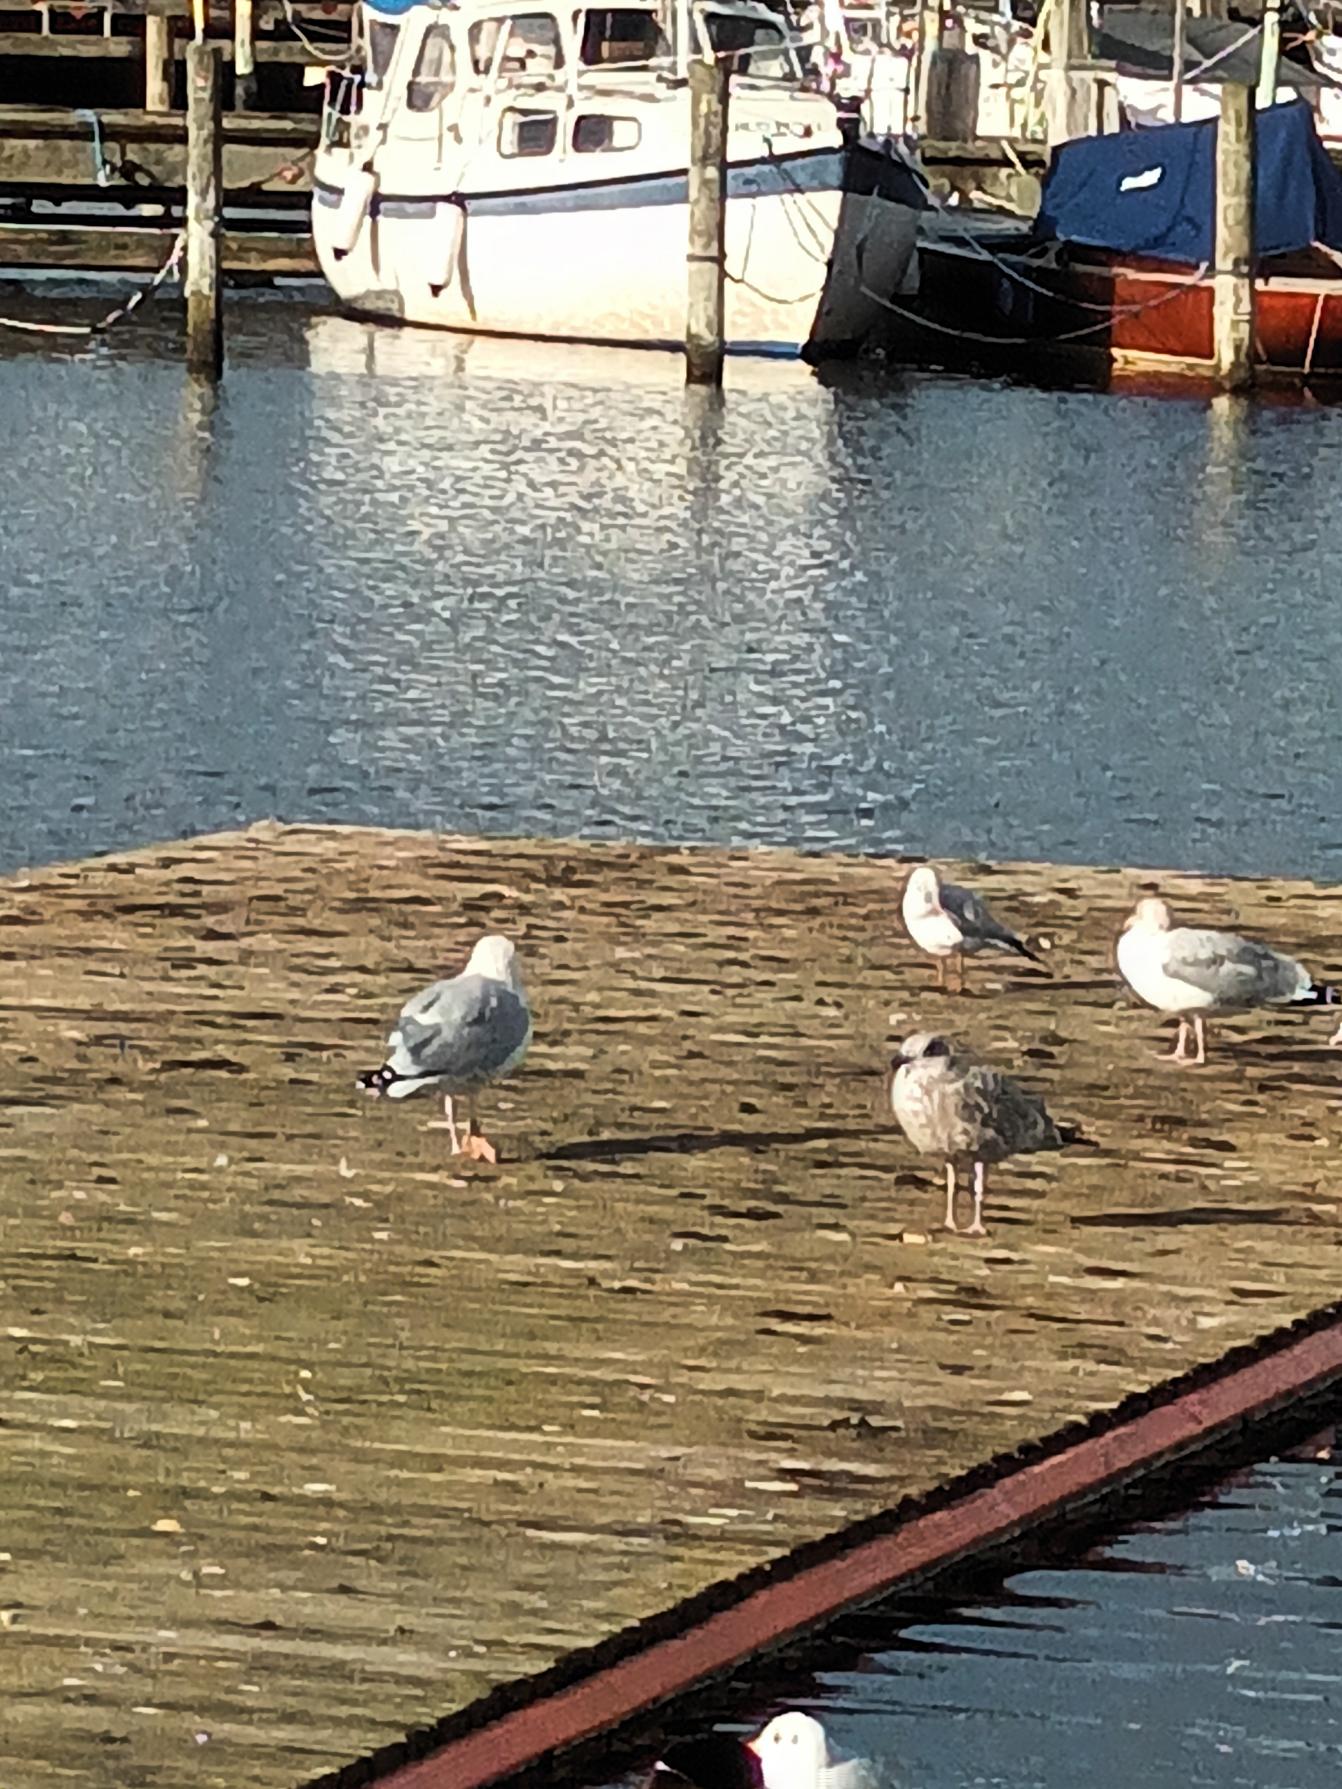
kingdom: Animalia
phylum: Chordata
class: Aves
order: Charadriiformes
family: Laridae
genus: Larus
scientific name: Larus argentatus
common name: Sølvmåge
